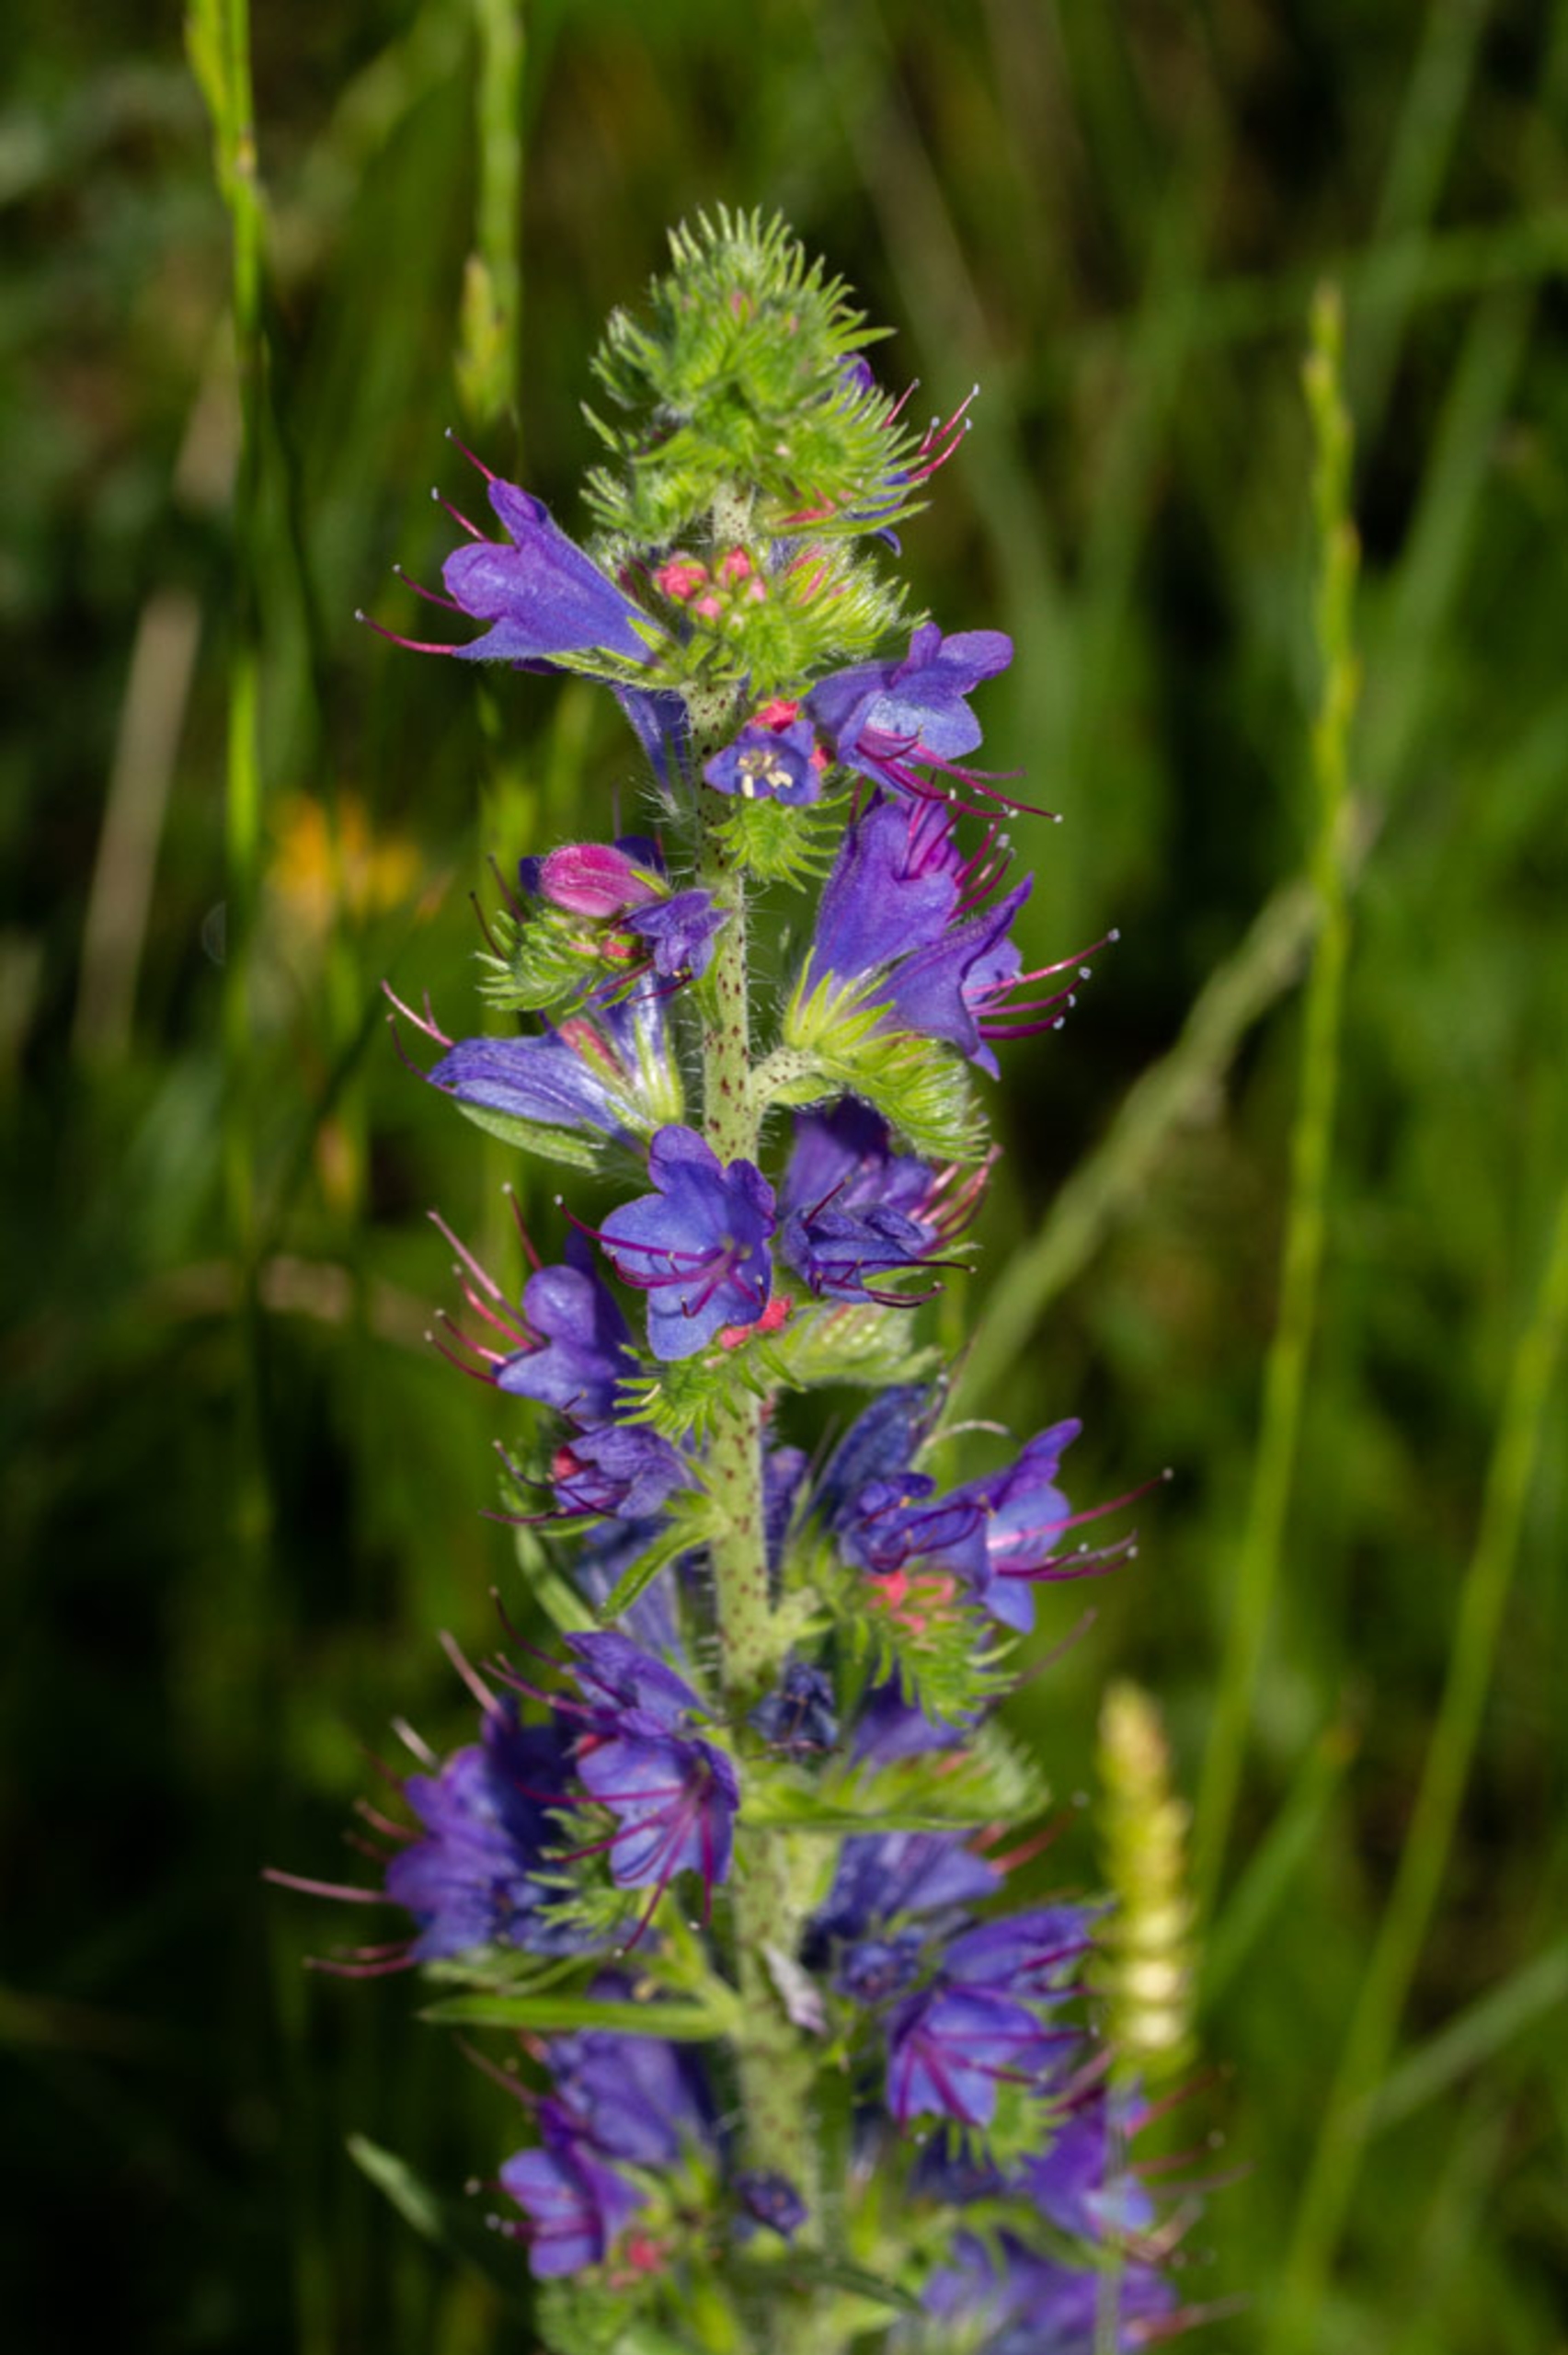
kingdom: Plantae
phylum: Tracheophyta
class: Magnoliopsida
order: Boraginales
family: Boraginaceae
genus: Echium
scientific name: Echium vulgare
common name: Slangehoved
